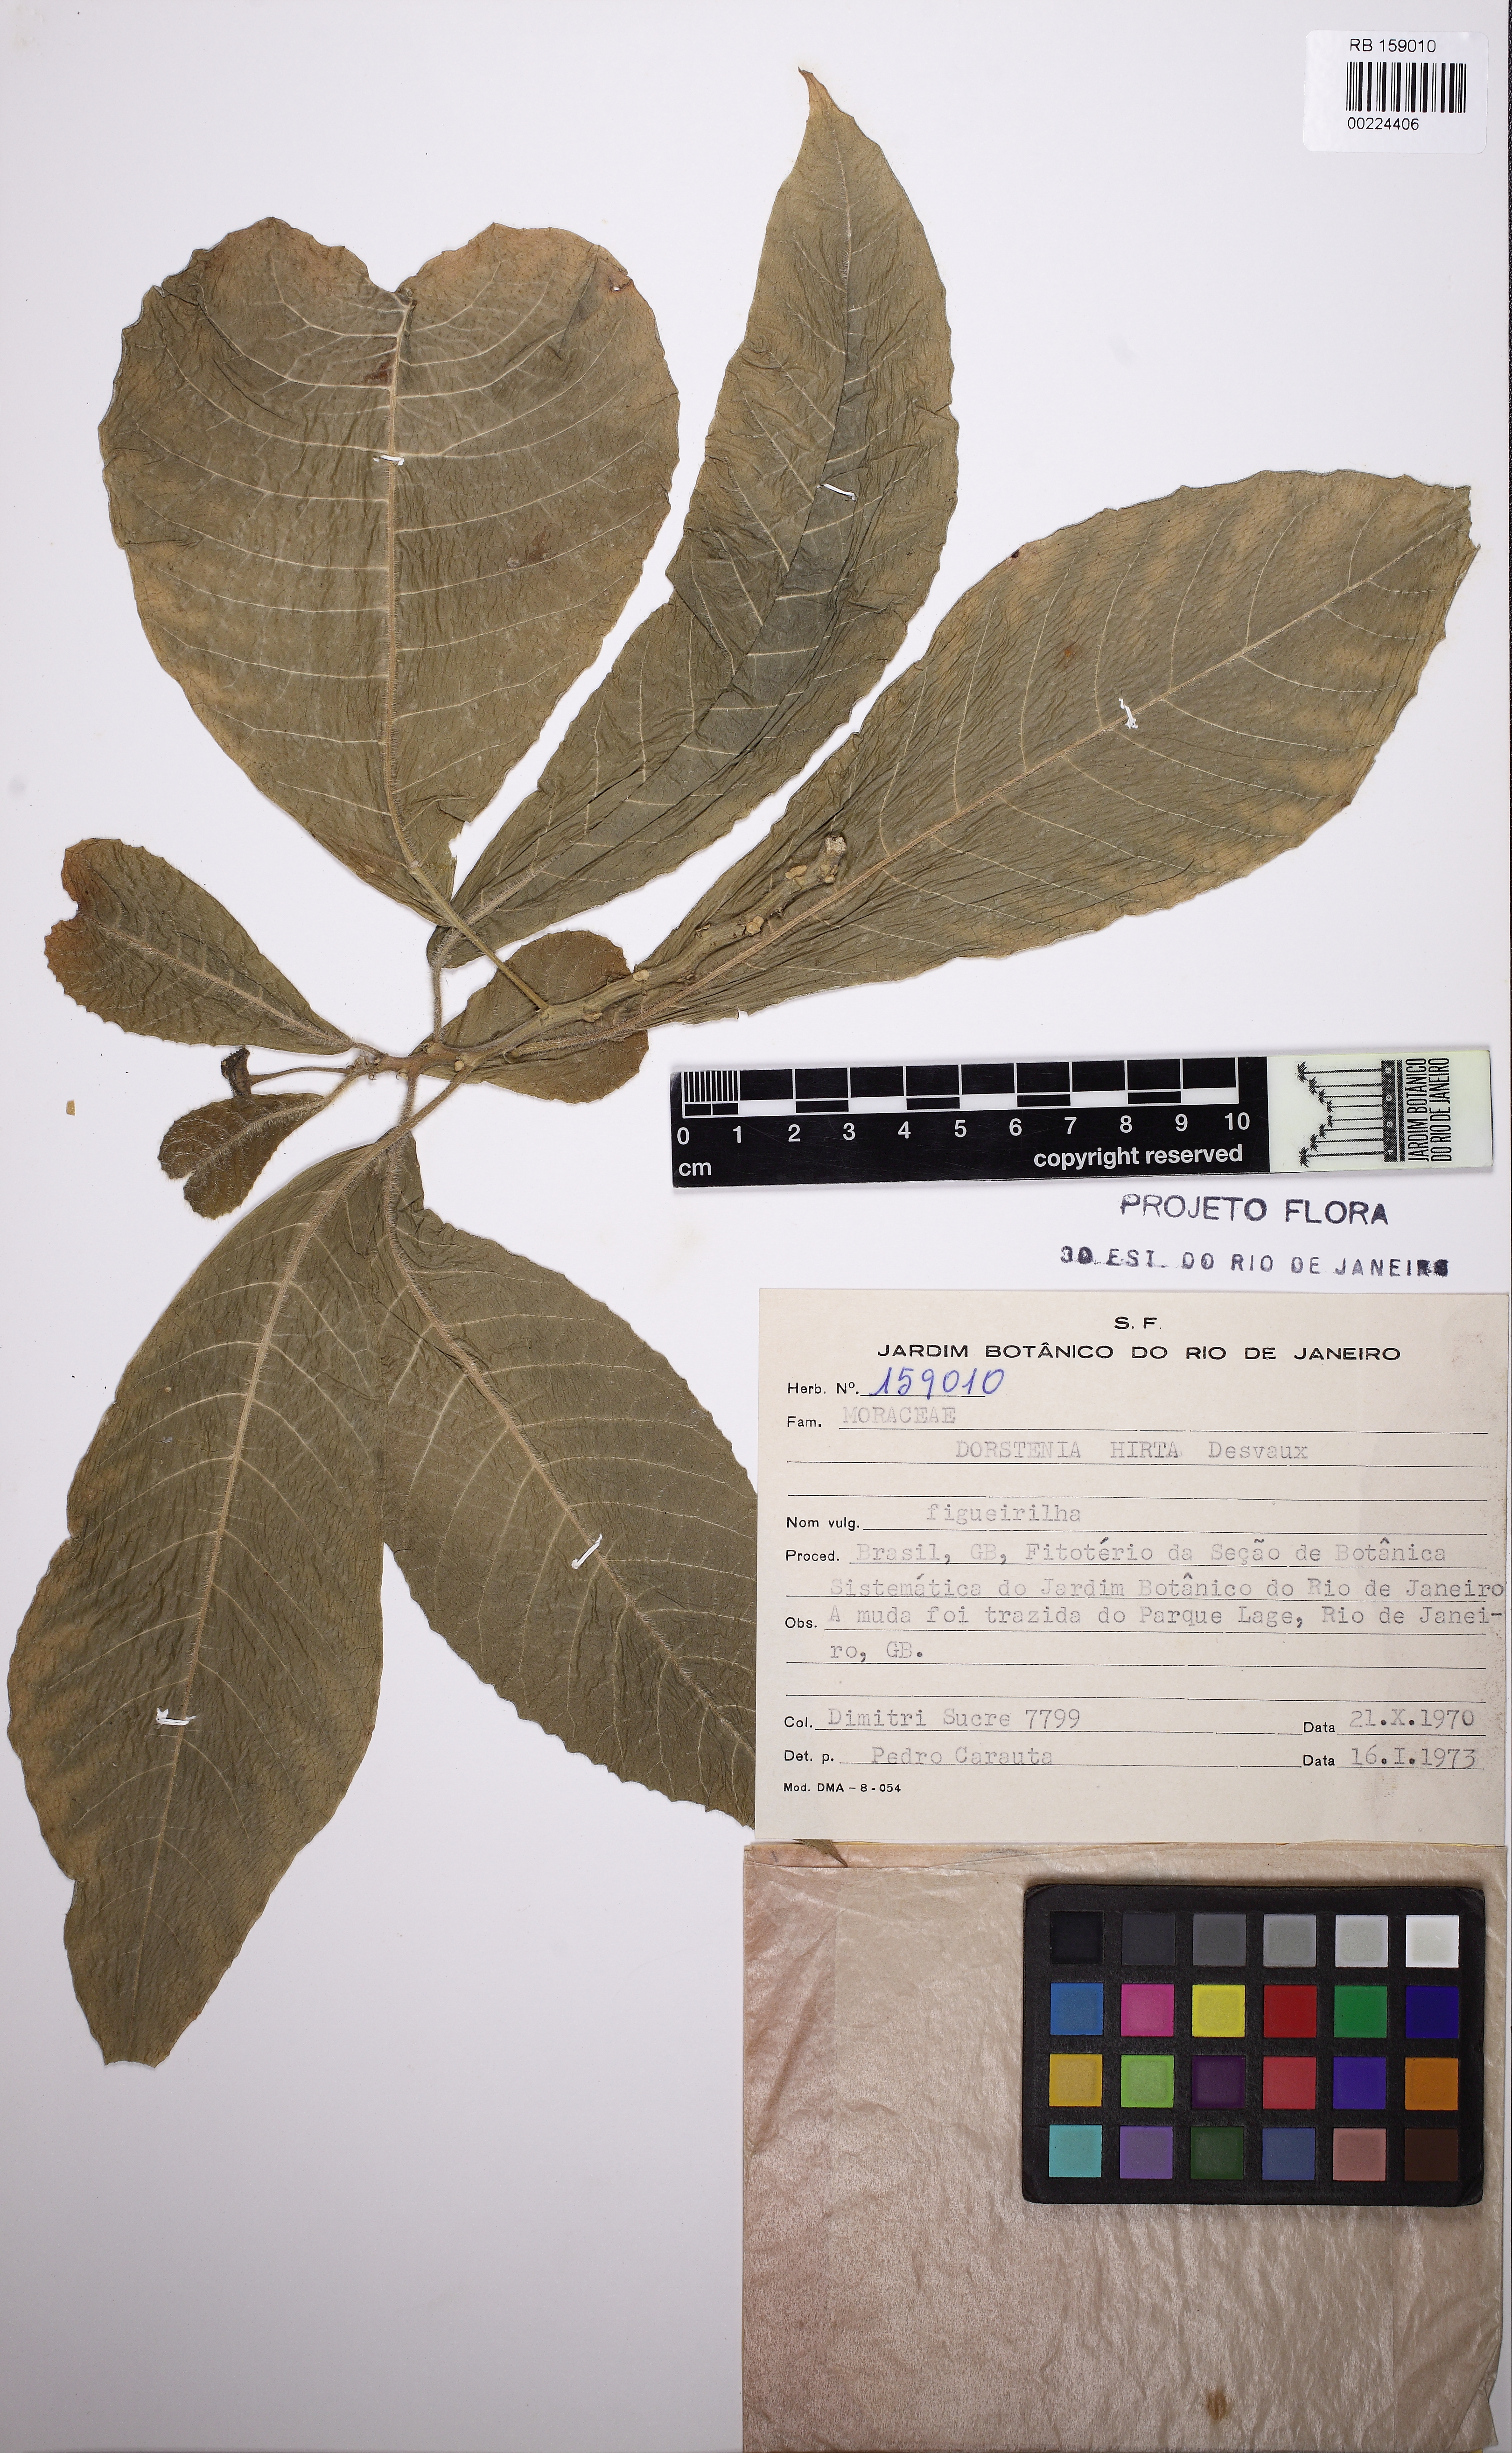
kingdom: Plantae
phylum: Tracheophyta
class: Magnoliopsida
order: Rosales
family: Moraceae
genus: Dorstenia
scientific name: Dorstenia hirta
